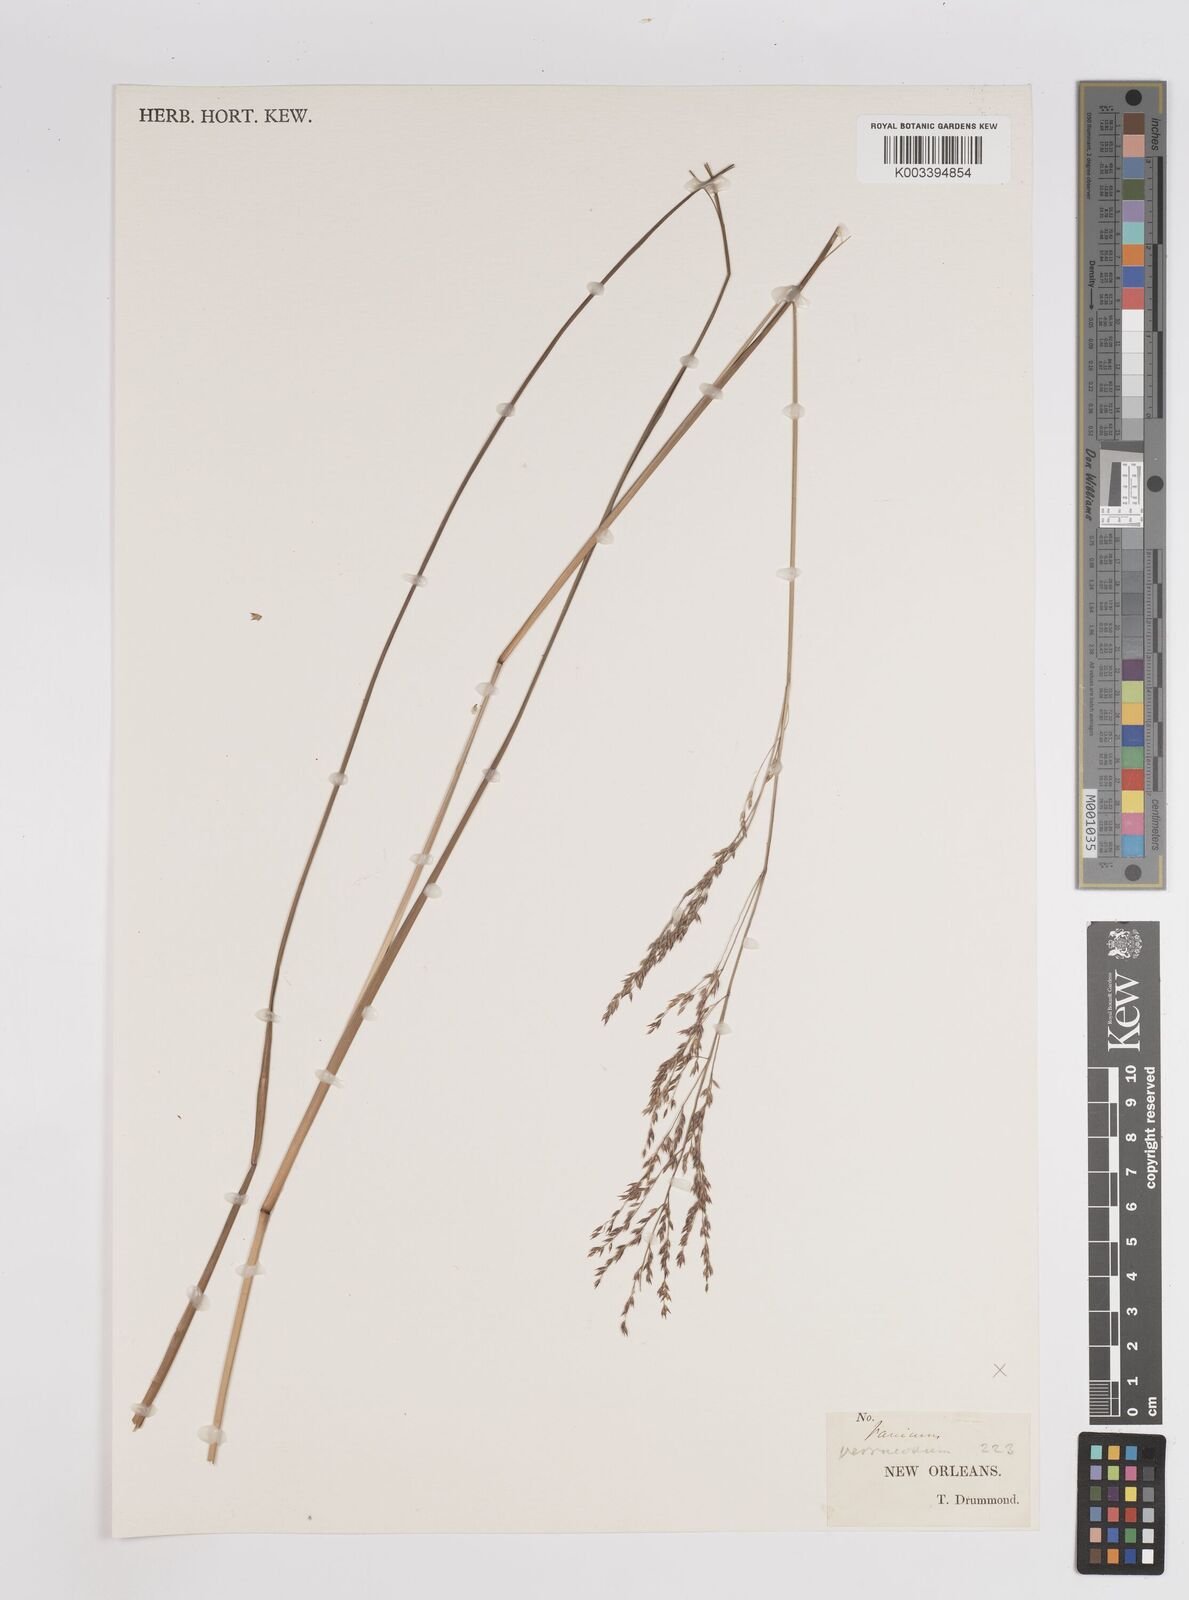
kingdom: Plantae
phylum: Tracheophyta
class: Liliopsida
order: Poales
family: Poaceae
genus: Panicum
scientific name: Panicum virgatum
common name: Switchgrass
